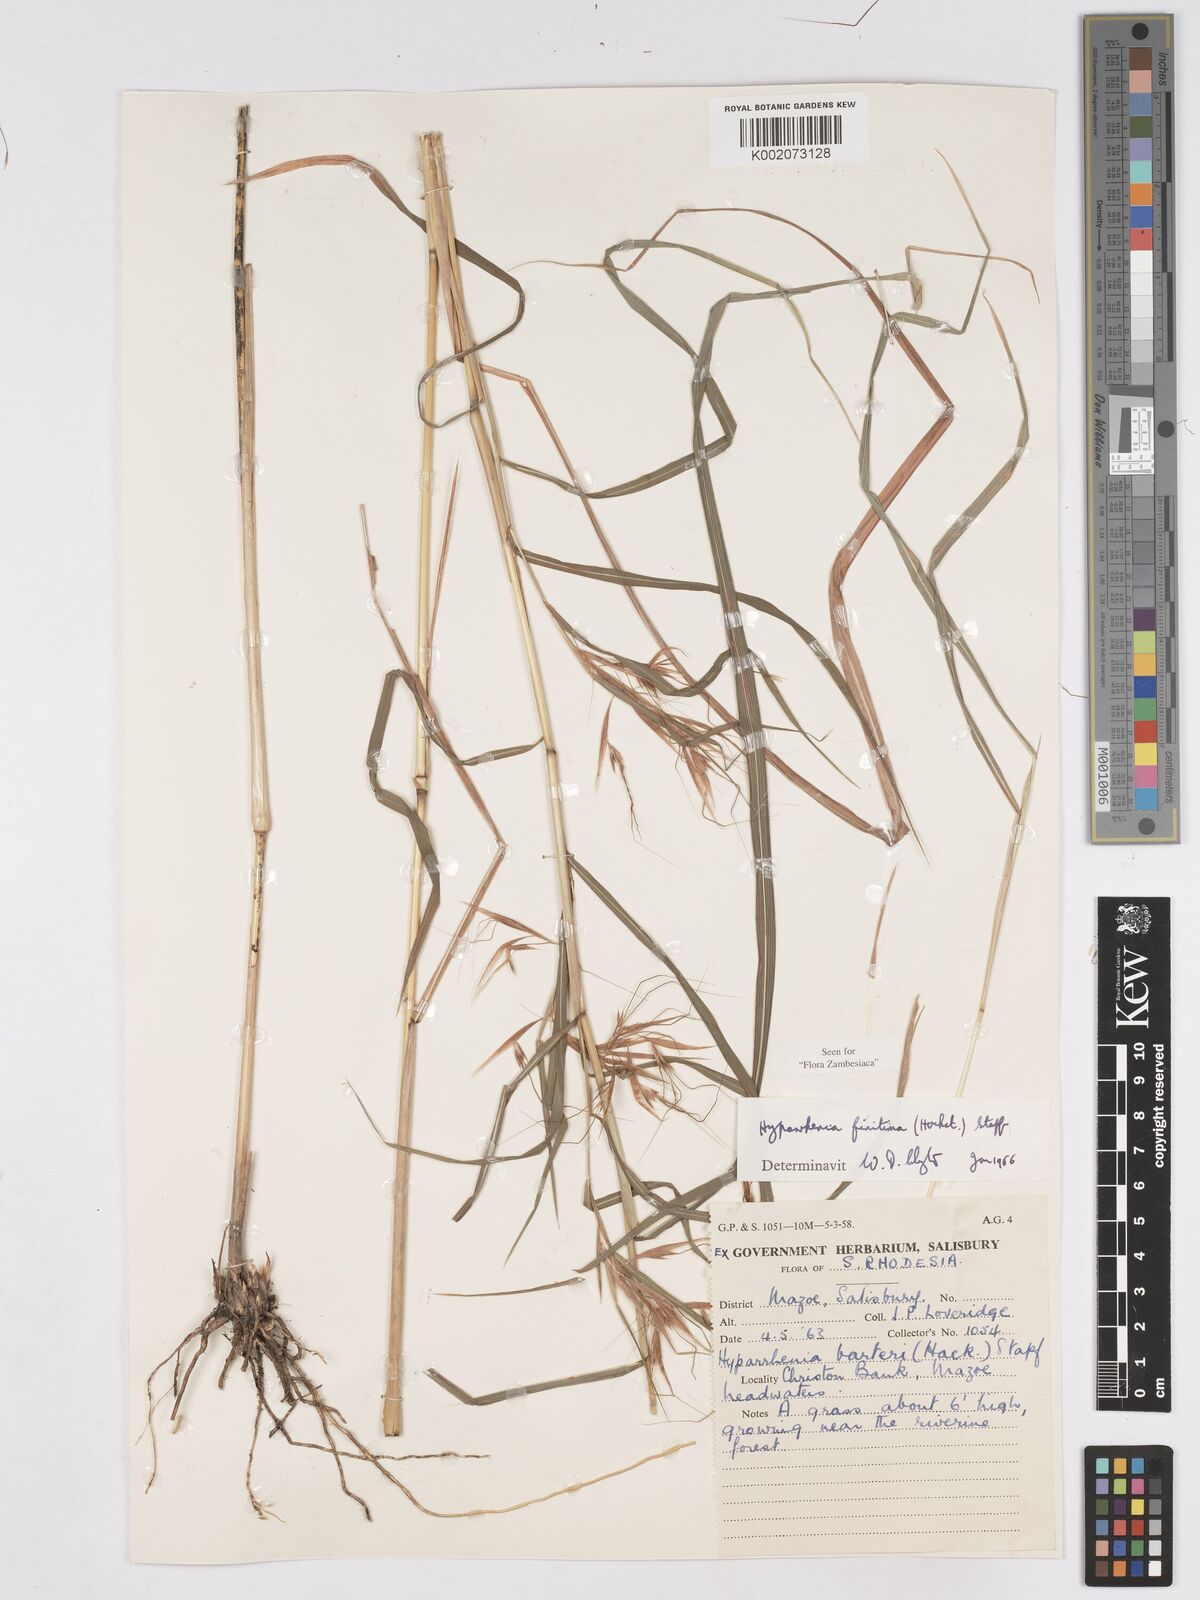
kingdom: Plantae
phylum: Tracheophyta
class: Liliopsida
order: Poales
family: Poaceae
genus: Hyparrhenia
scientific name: Hyparrhenia finitima
